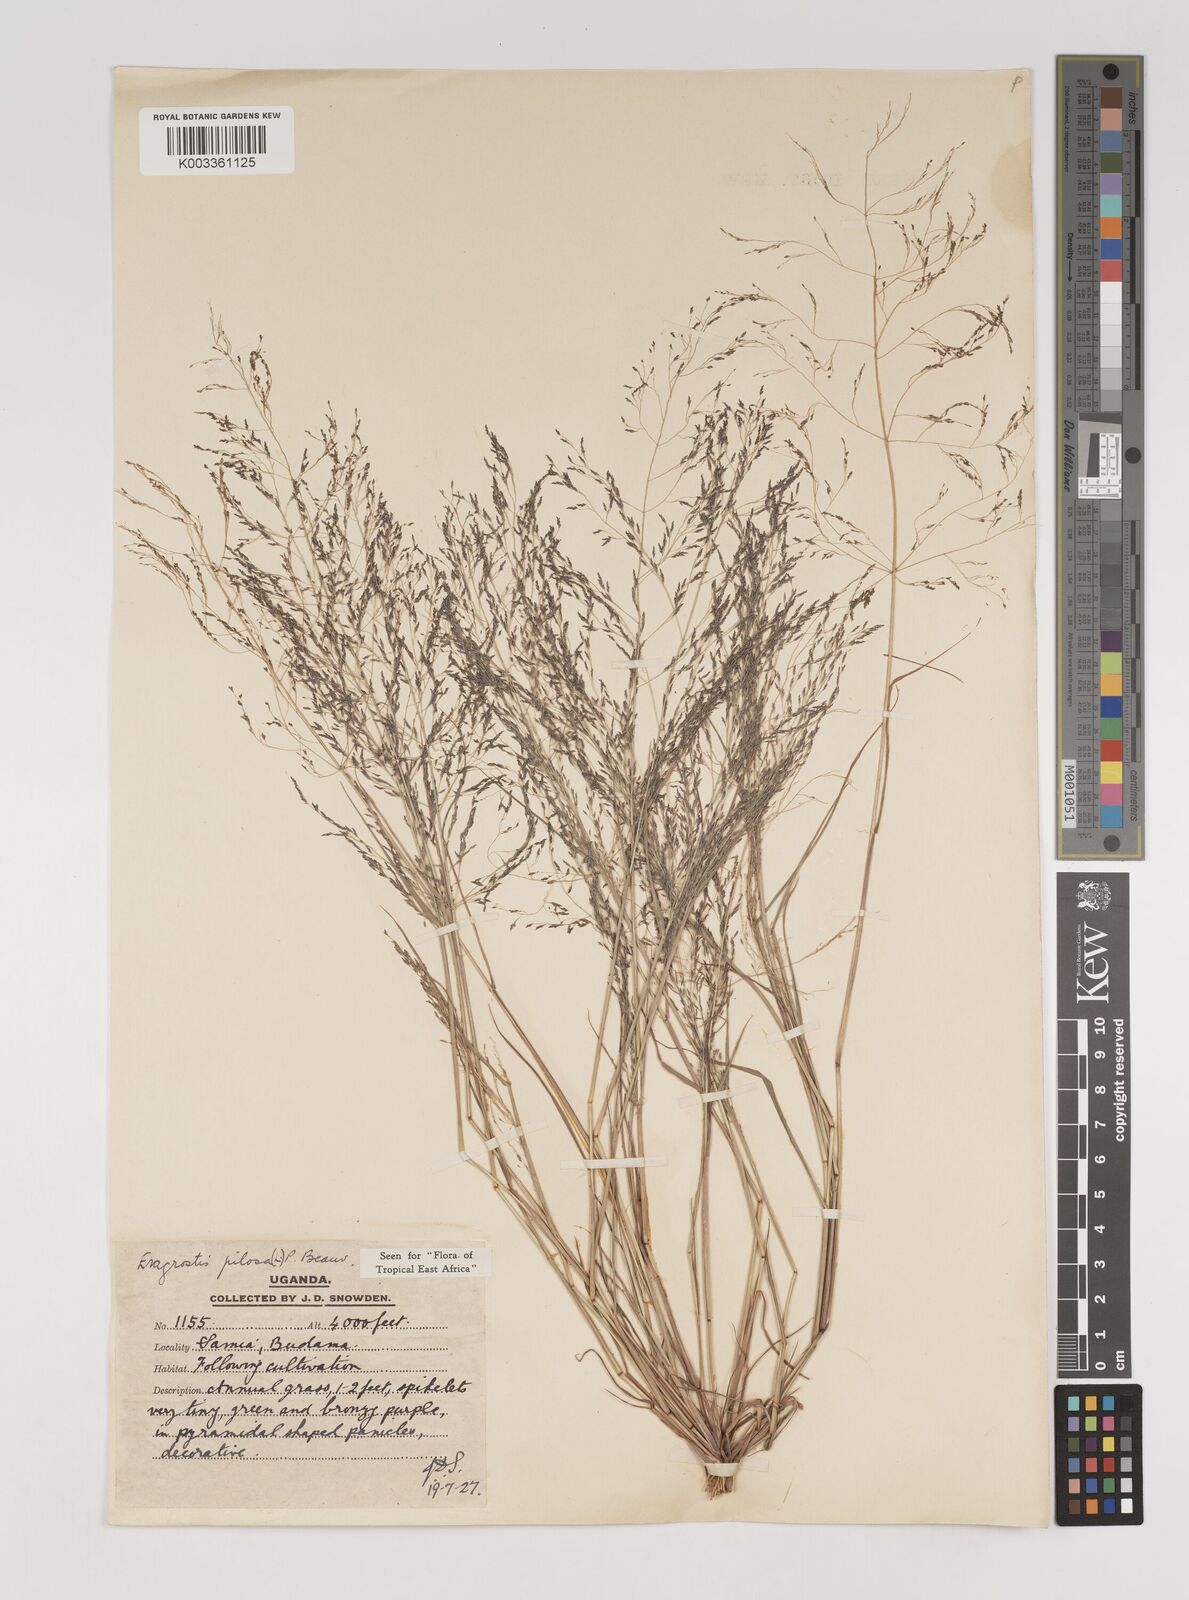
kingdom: Plantae
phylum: Tracheophyta
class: Liliopsida
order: Poales
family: Poaceae
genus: Eragrostis
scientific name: Eragrostis pilosa
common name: Indian lovegrass
